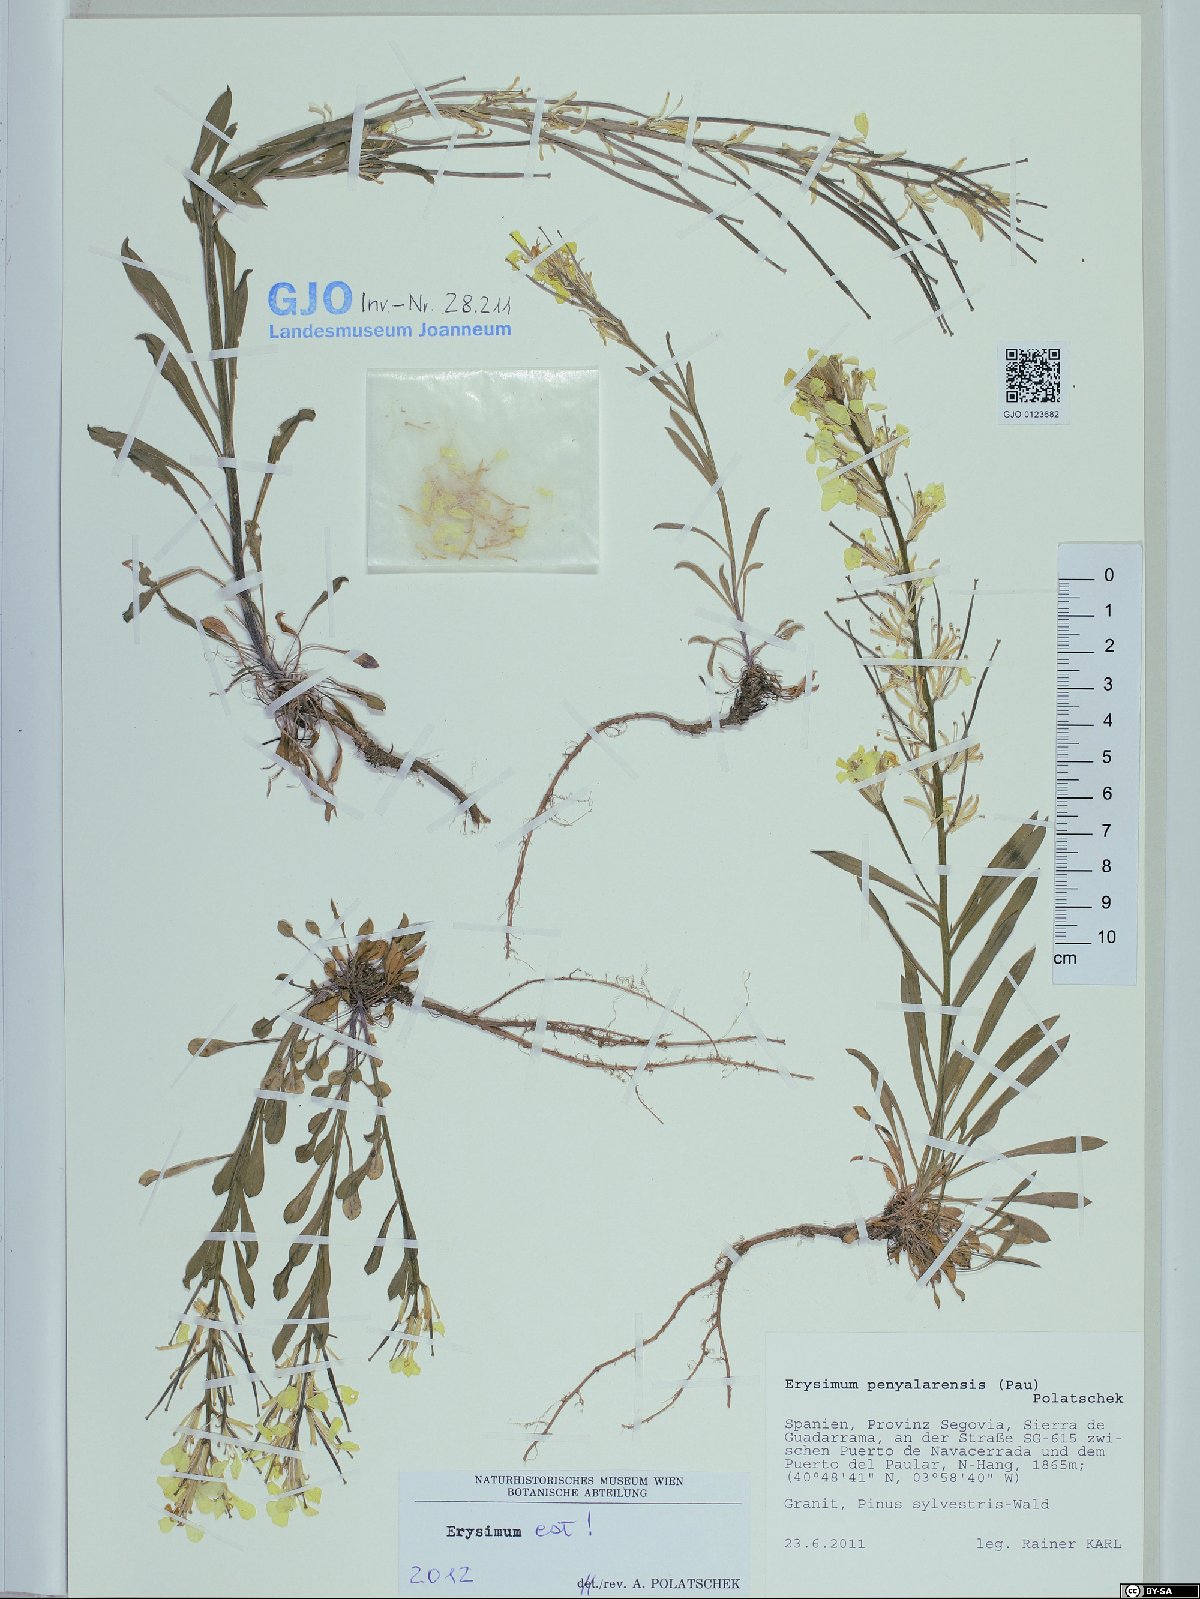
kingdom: Plantae
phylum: Tracheophyta
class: Magnoliopsida
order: Brassicales
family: Brassicaceae
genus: Erysimum
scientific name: Erysimum penyalarense
